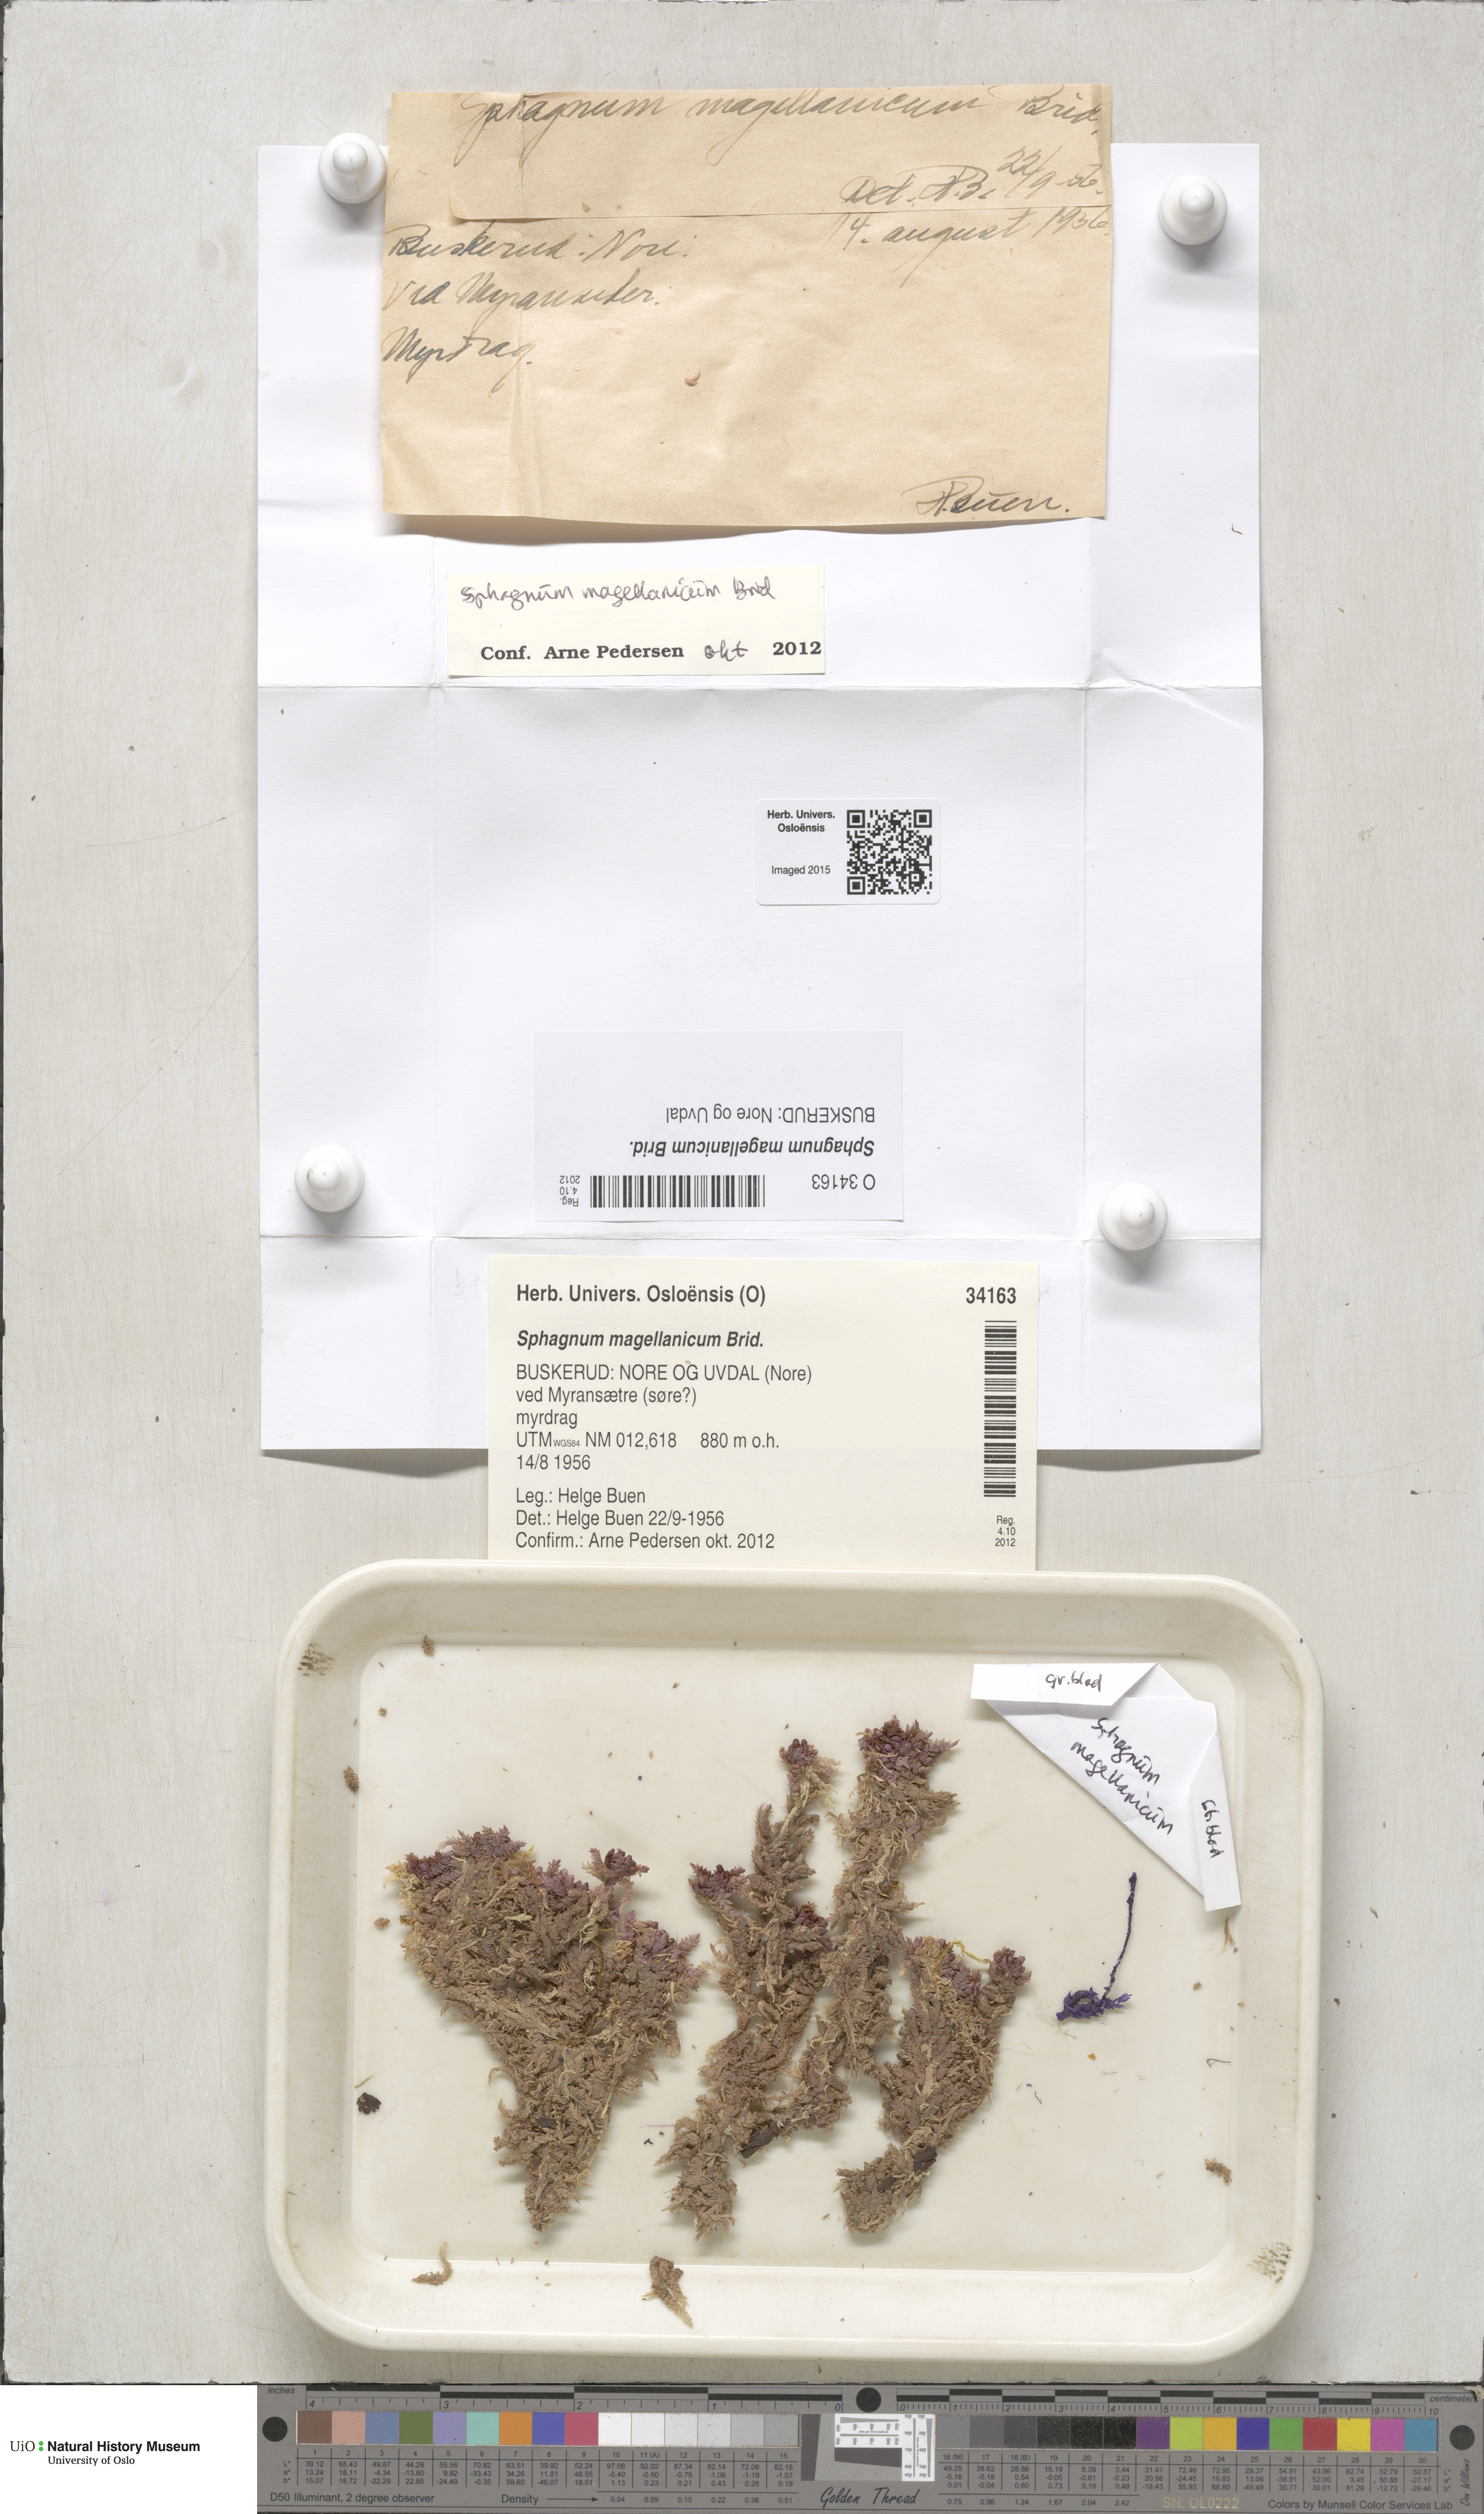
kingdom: Plantae
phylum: Bryophyta
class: Sphagnopsida
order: Sphagnales
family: Sphagnaceae
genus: Sphagnum
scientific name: Sphagnum magellanicum
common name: Magellan's peat moss
